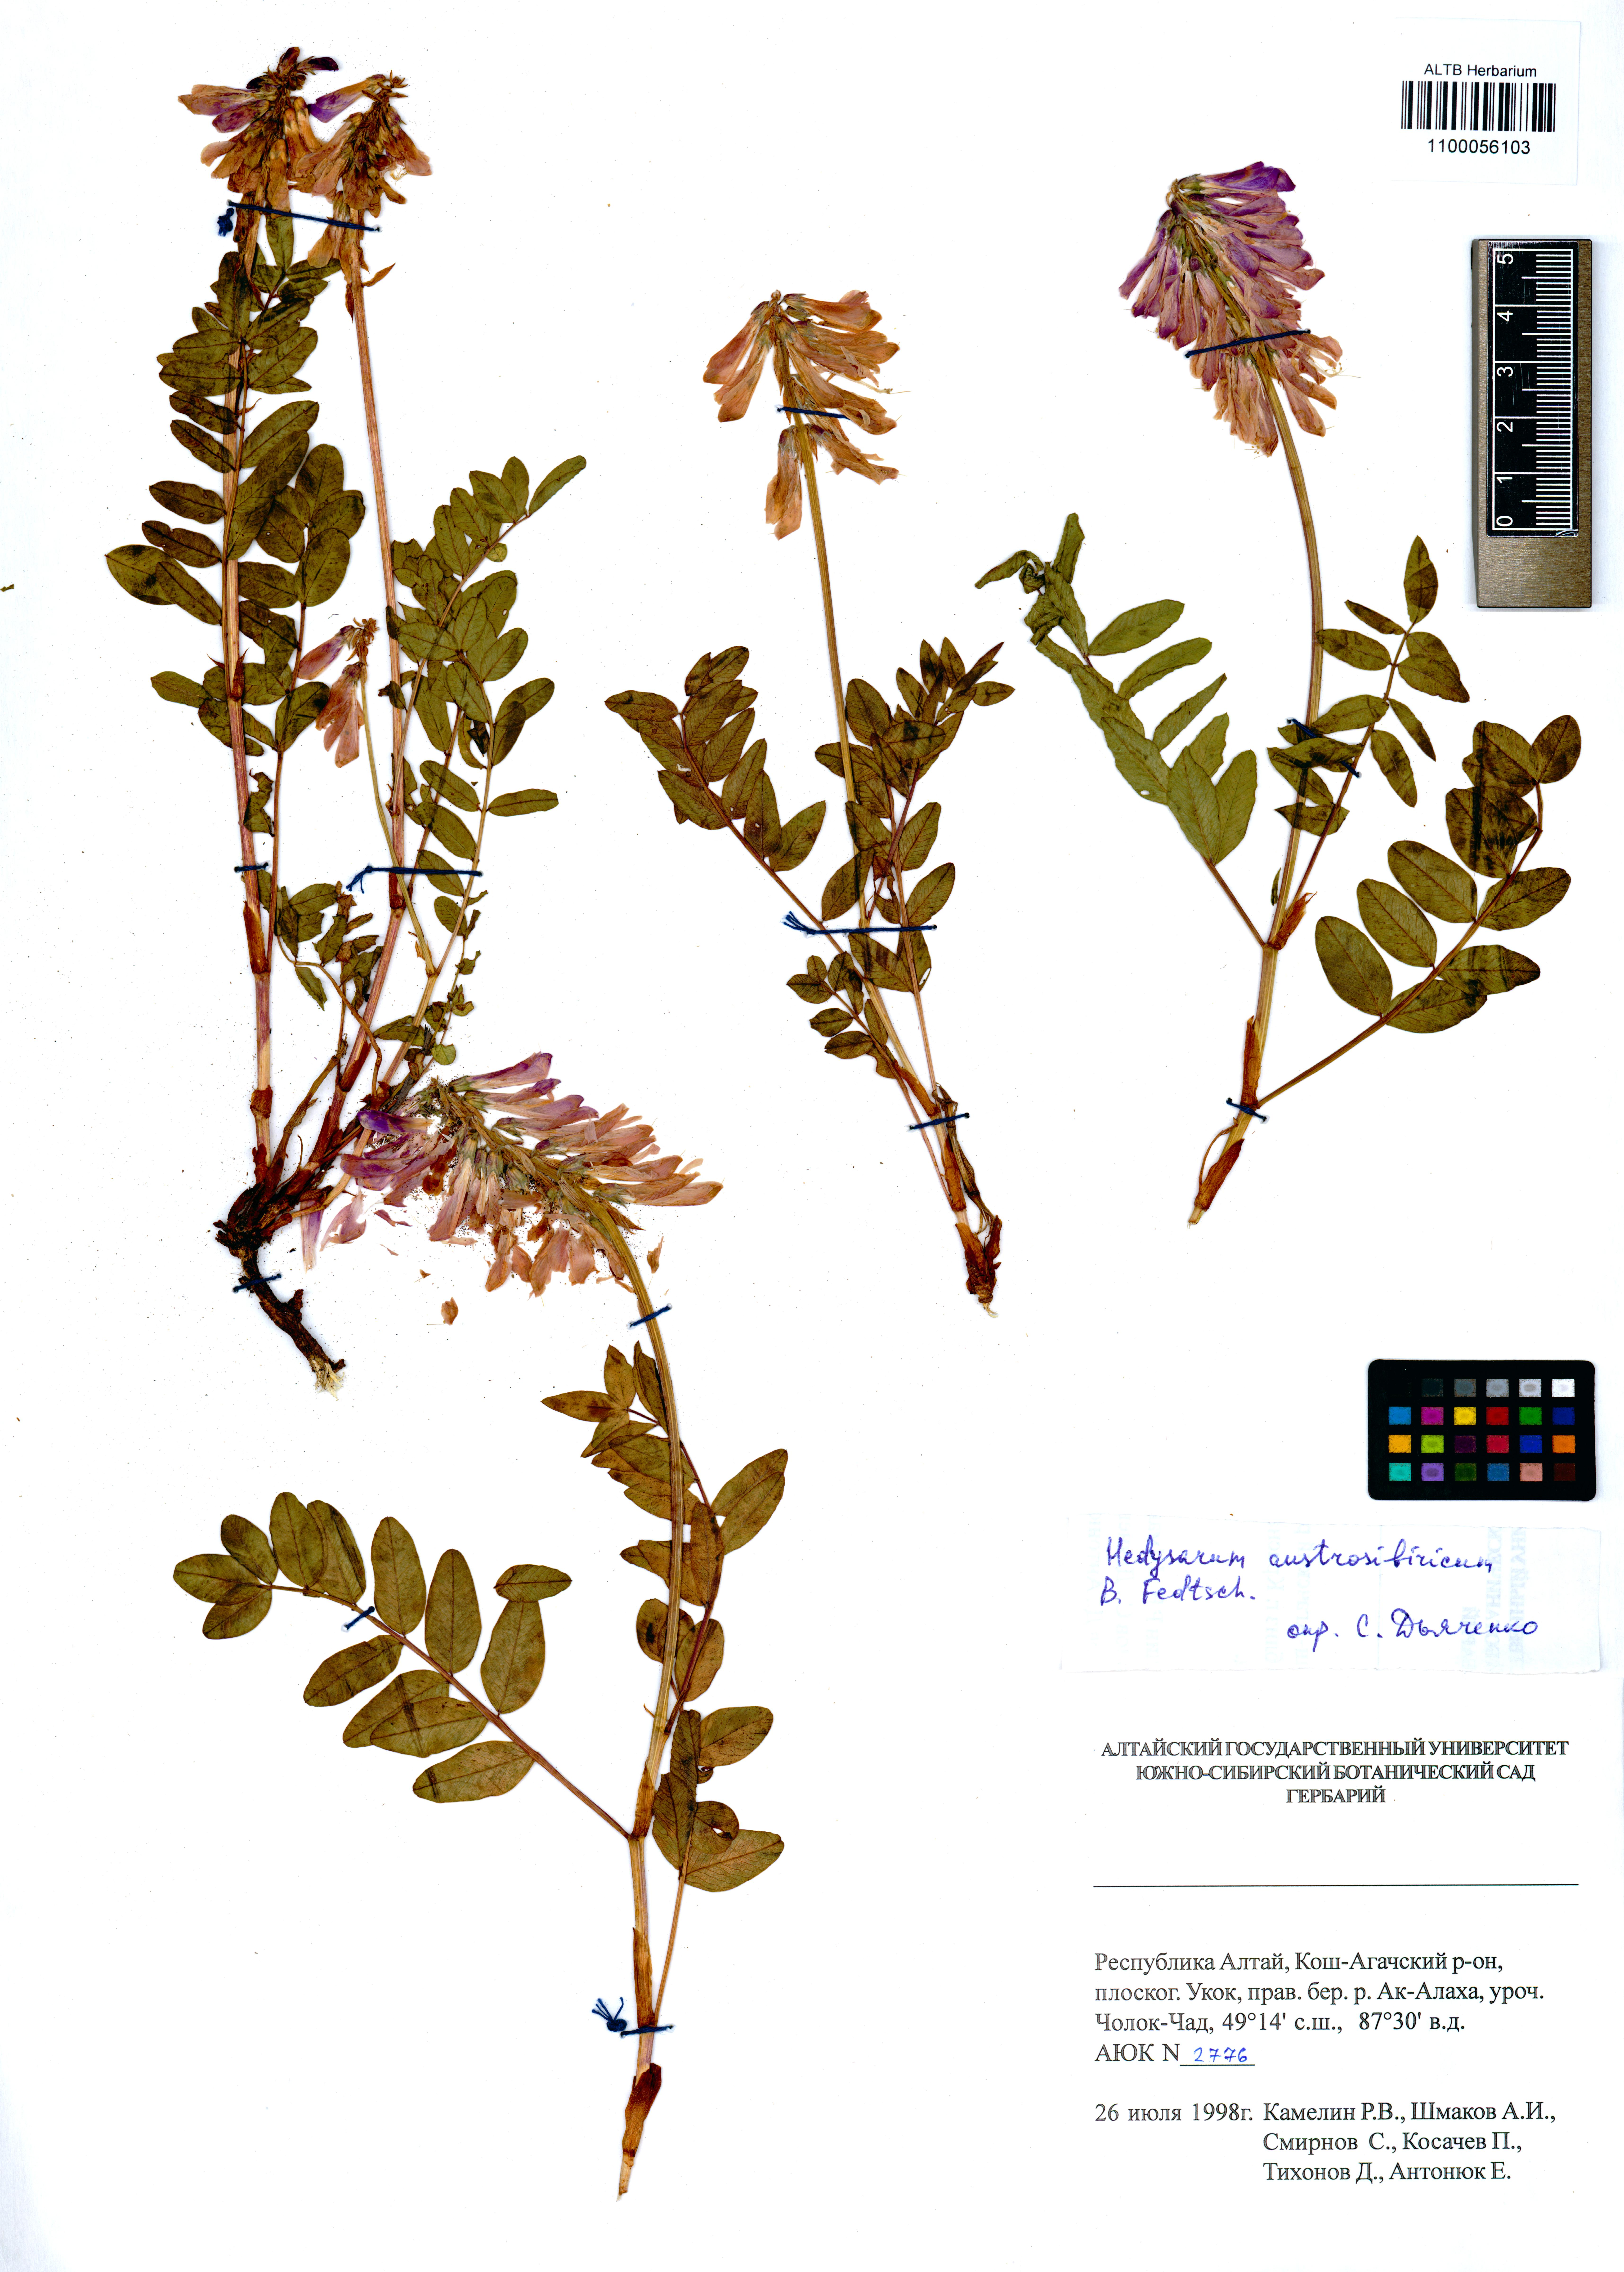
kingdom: Plantae
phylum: Tracheophyta
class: Magnoliopsida
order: Fabales
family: Fabaceae
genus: Hedysarum
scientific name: Hedysarum neglectum
